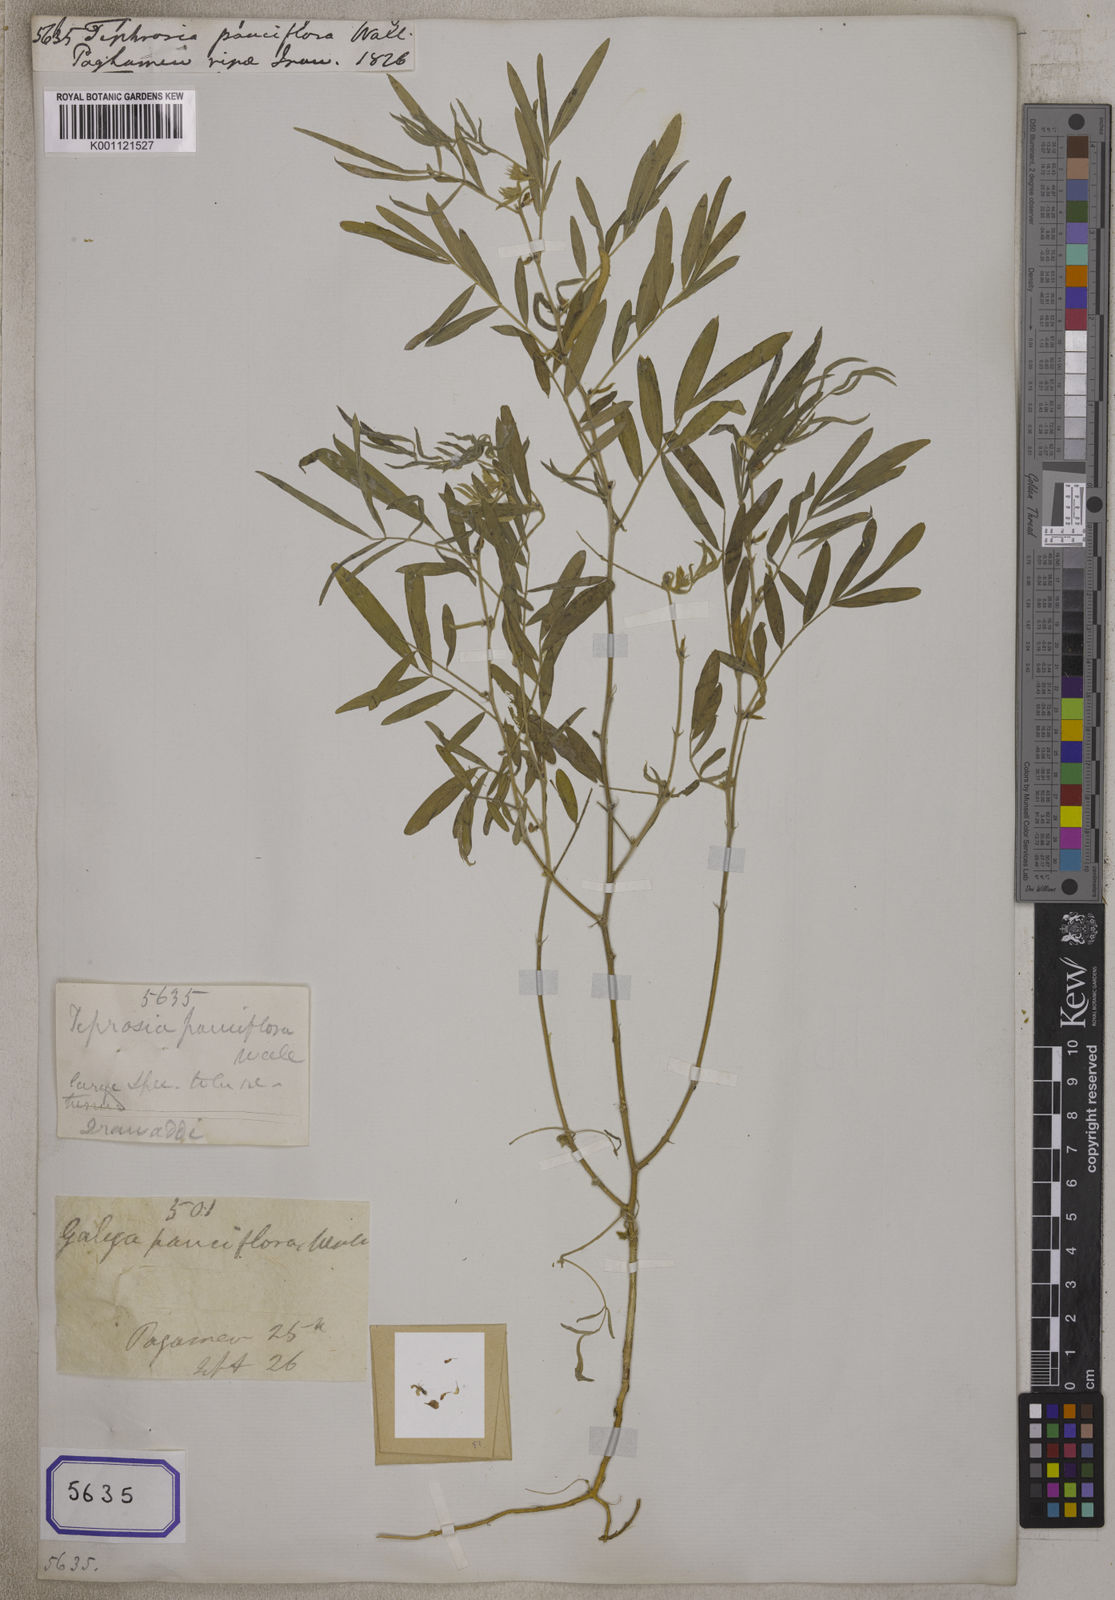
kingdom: Plantae
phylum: Tracheophyta
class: Magnoliopsida
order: Fabales
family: Fabaceae
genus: Tephrosia
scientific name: Tephrosia purpurea
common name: Fishpoison
